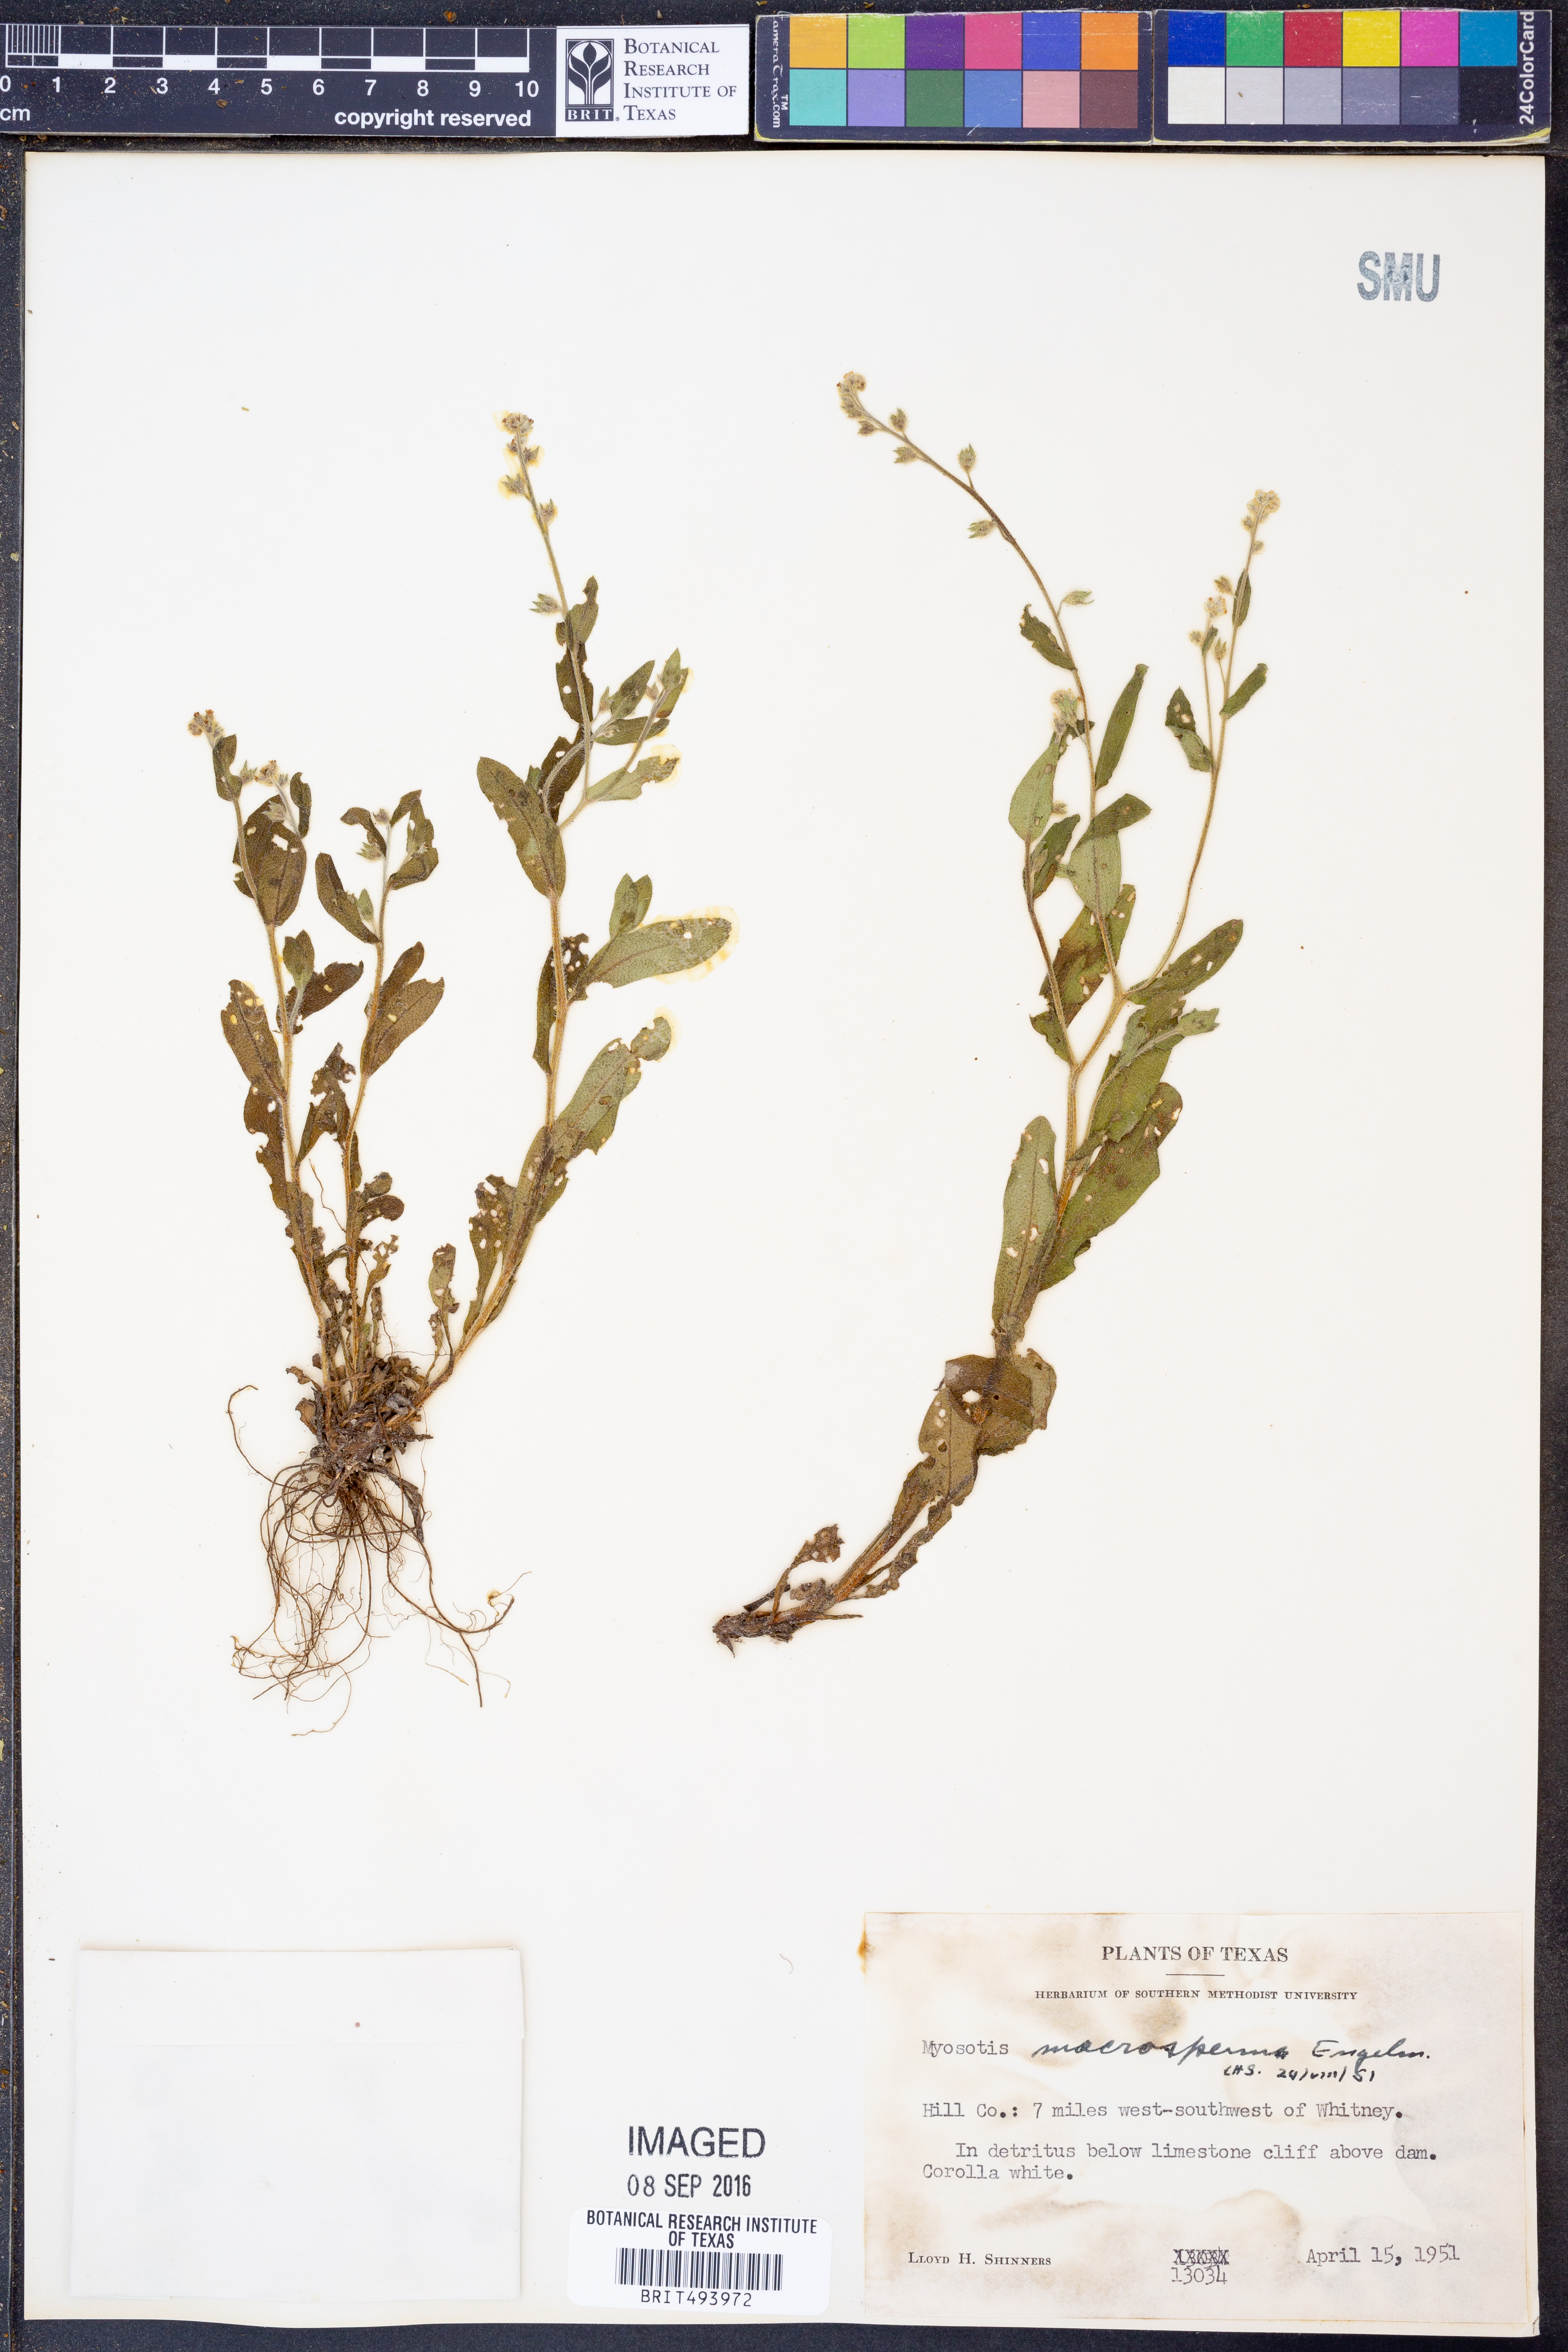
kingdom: Plantae
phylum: Tracheophyta
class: Magnoliopsida
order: Boraginales
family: Boraginaceae
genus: Myosotis
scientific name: Myosotis macrosperma
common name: Large-seed forget-me-not
